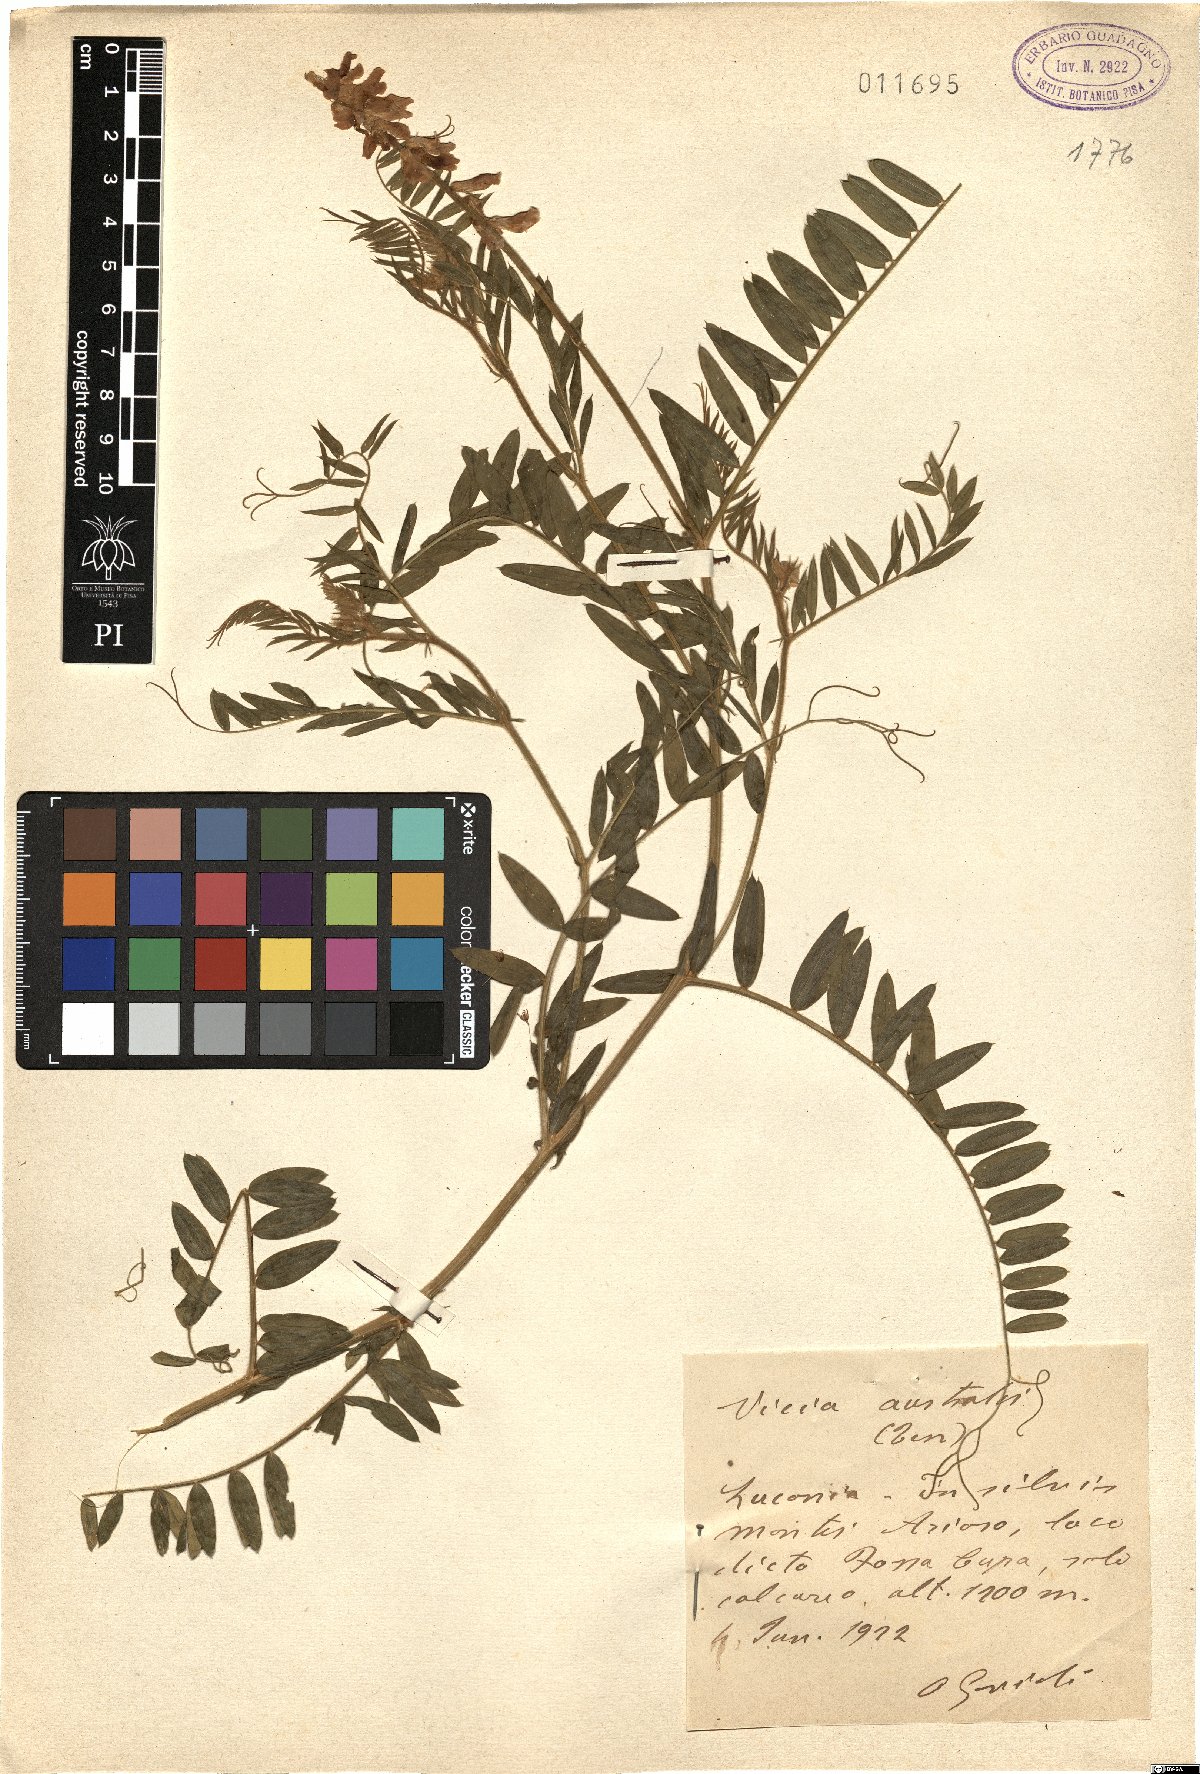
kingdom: Plantae
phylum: Tracheophyta
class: Magnoliopsida
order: Fabales
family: Fabaceae
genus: Vicia
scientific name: Vicia cracca
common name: Bird vetch
